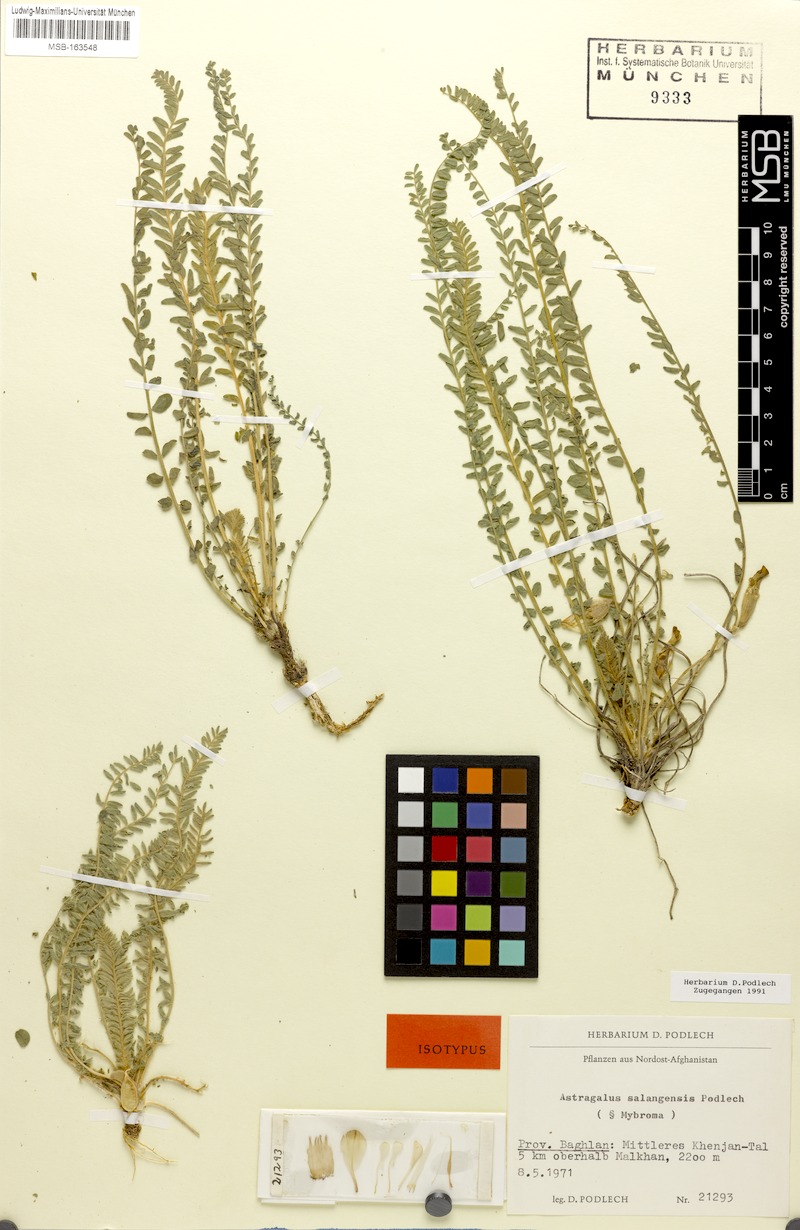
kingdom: Plantae
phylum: Tracheophyta
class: Magnoliopsida
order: Fabales
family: Fabaceae
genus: Astragalus
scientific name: Astragalus salangensis
